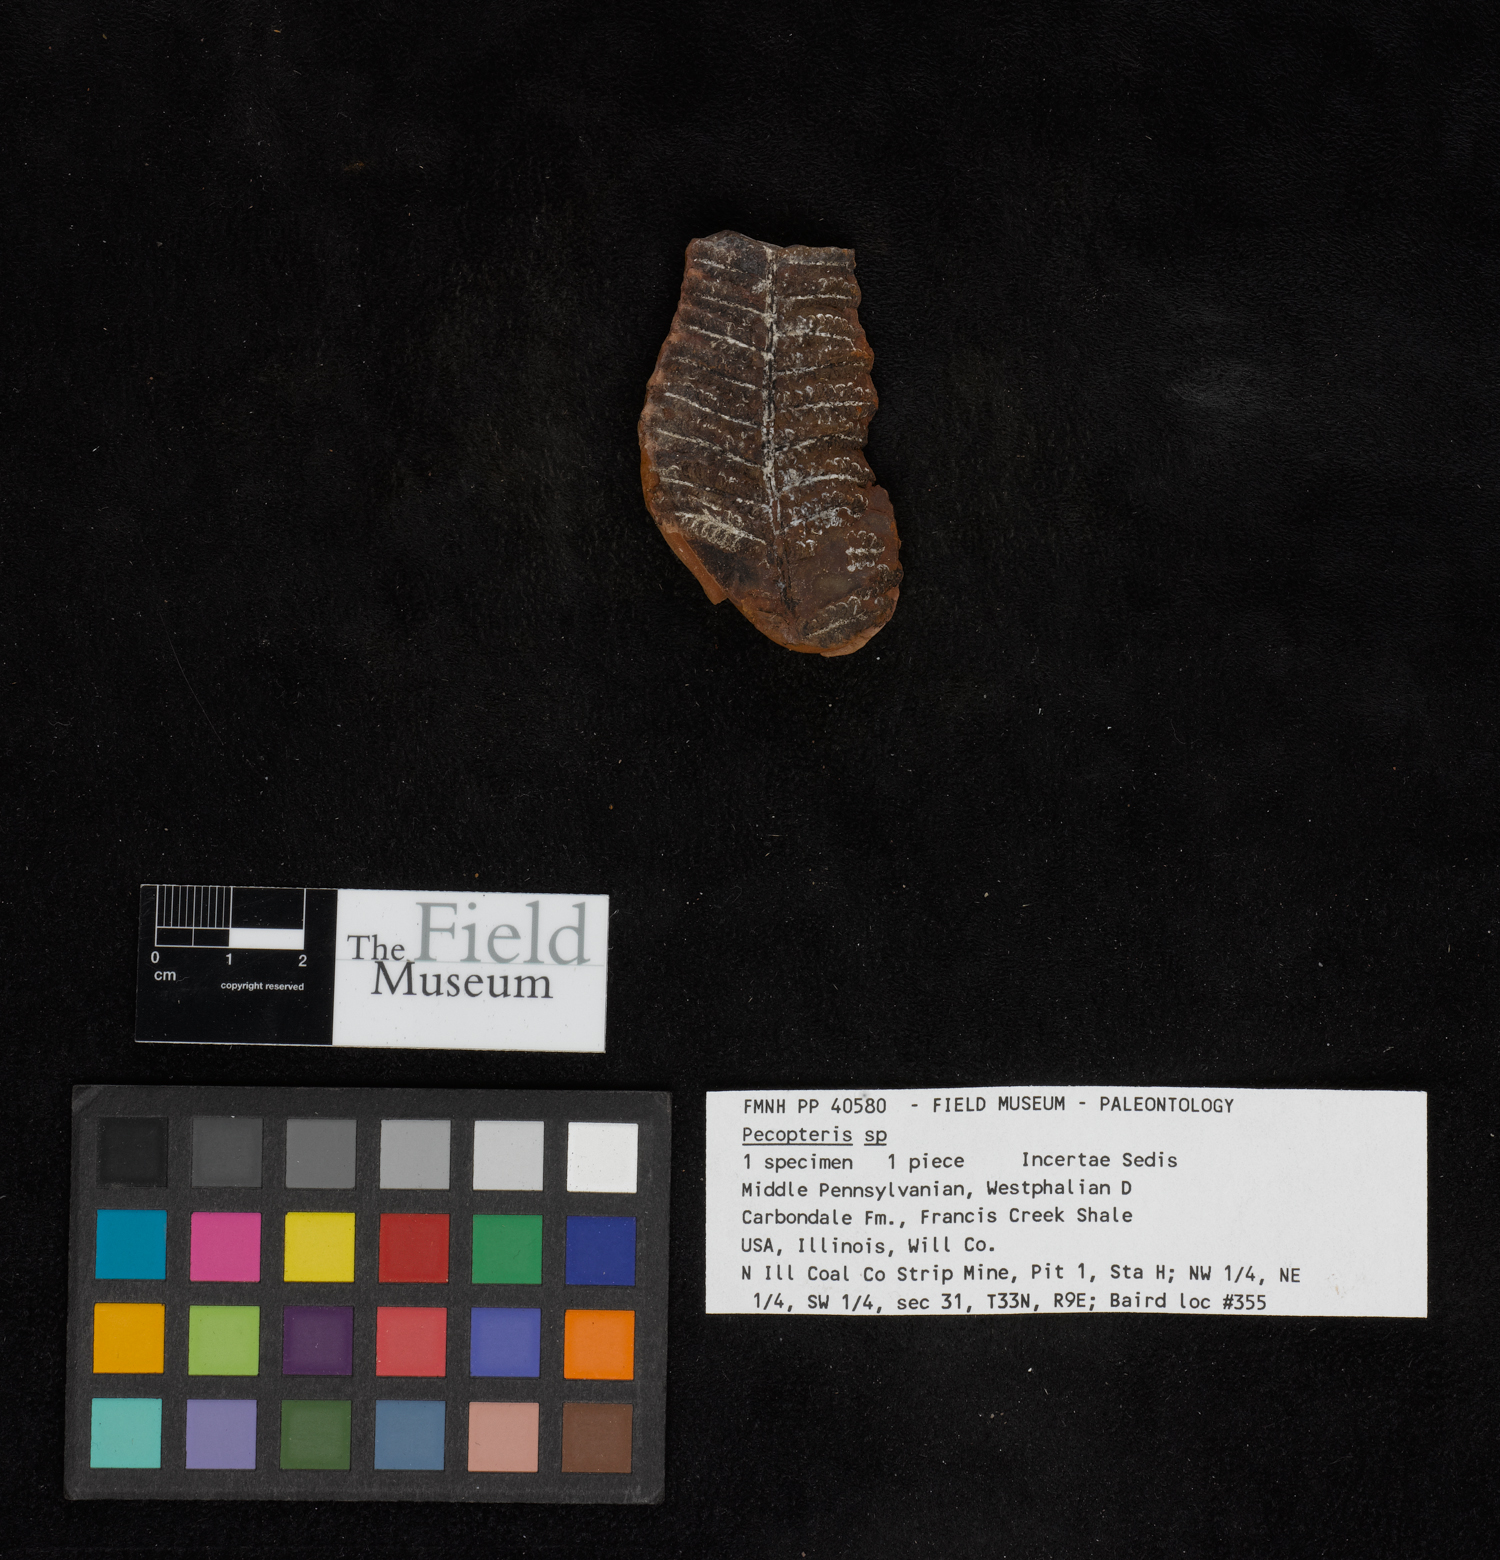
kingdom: Plantae
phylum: Tracheophyta
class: Polypodiopsida
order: Marattiales
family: Asterothecaceae
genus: Pecopteris
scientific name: Pecopteris
